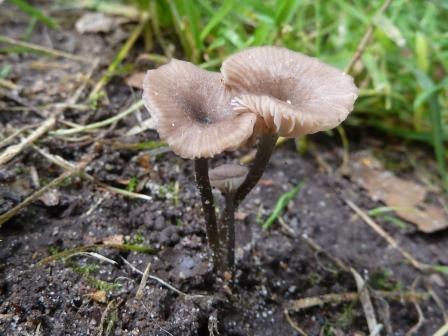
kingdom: Fungi
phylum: Basidiomycota
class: Agaricomycetes
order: Agaricales
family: Entolomataceae
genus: Entoloma
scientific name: Entoloma incarnatofuscescens
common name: tragt-rødblad
